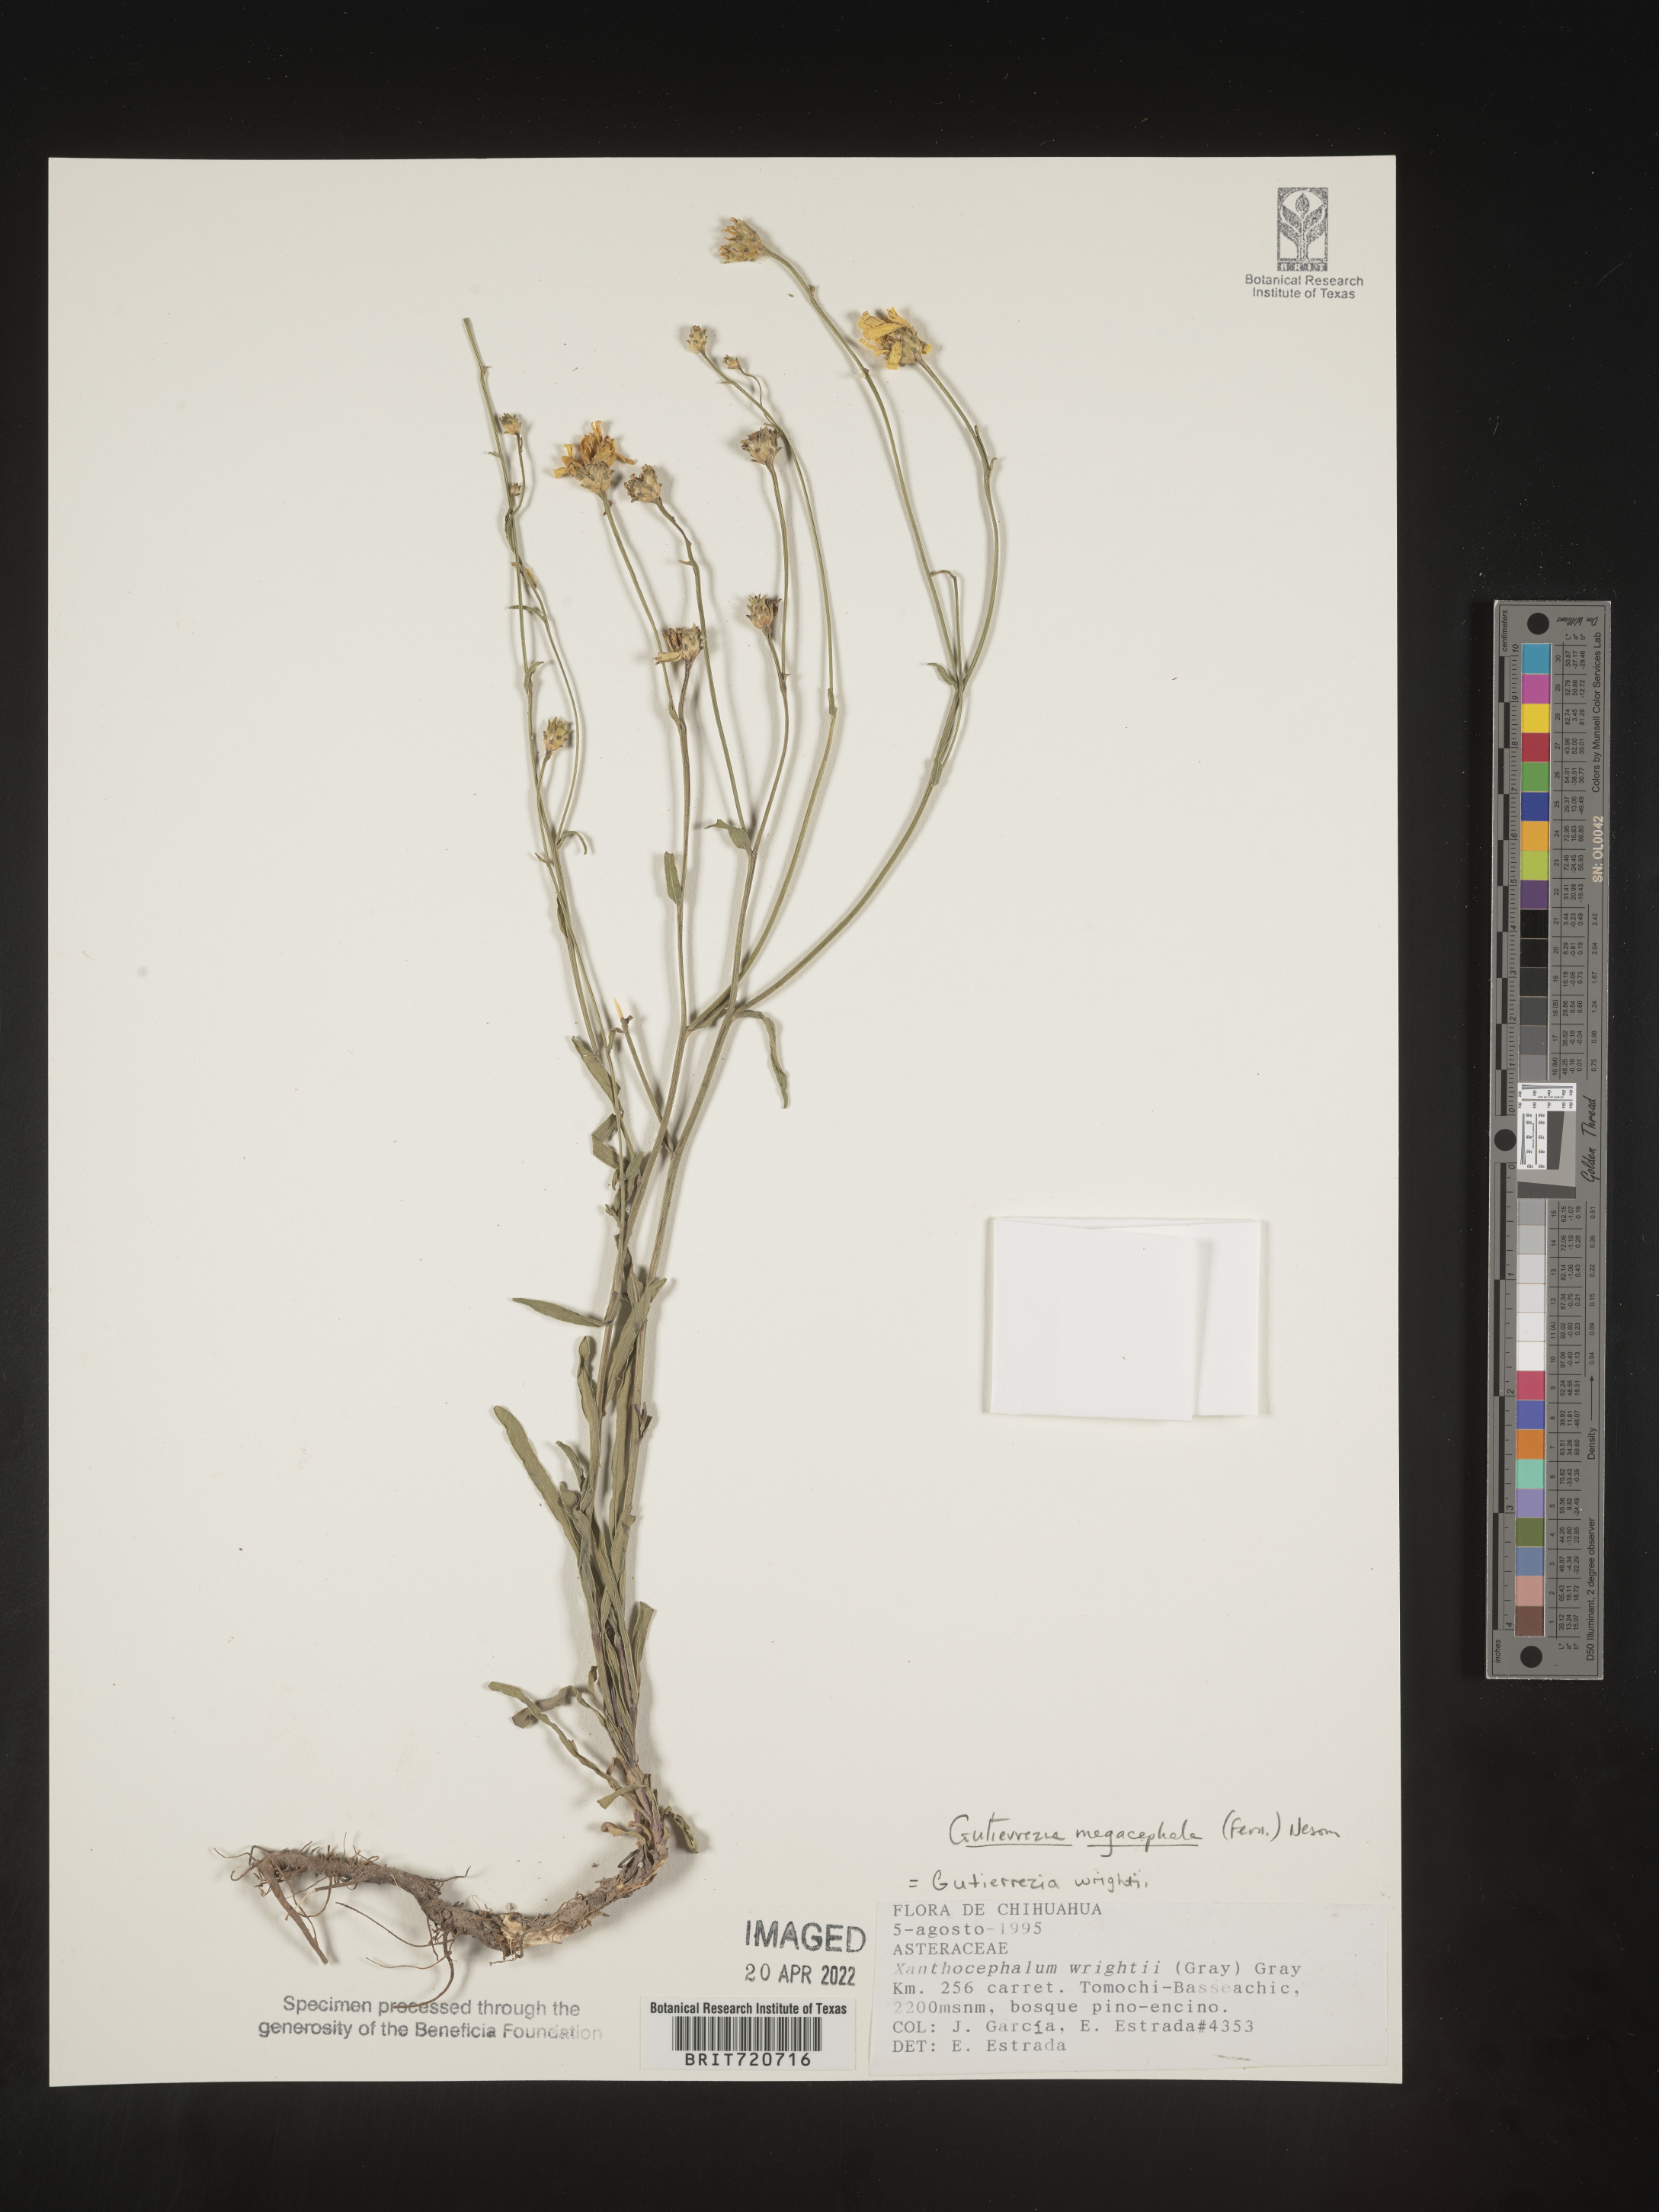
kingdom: Plantae
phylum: Tracheophyta
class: Magnoliopsida
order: Asterales
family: Asteraceae
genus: Gutierrezia
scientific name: Gutierrezia megalocephala
